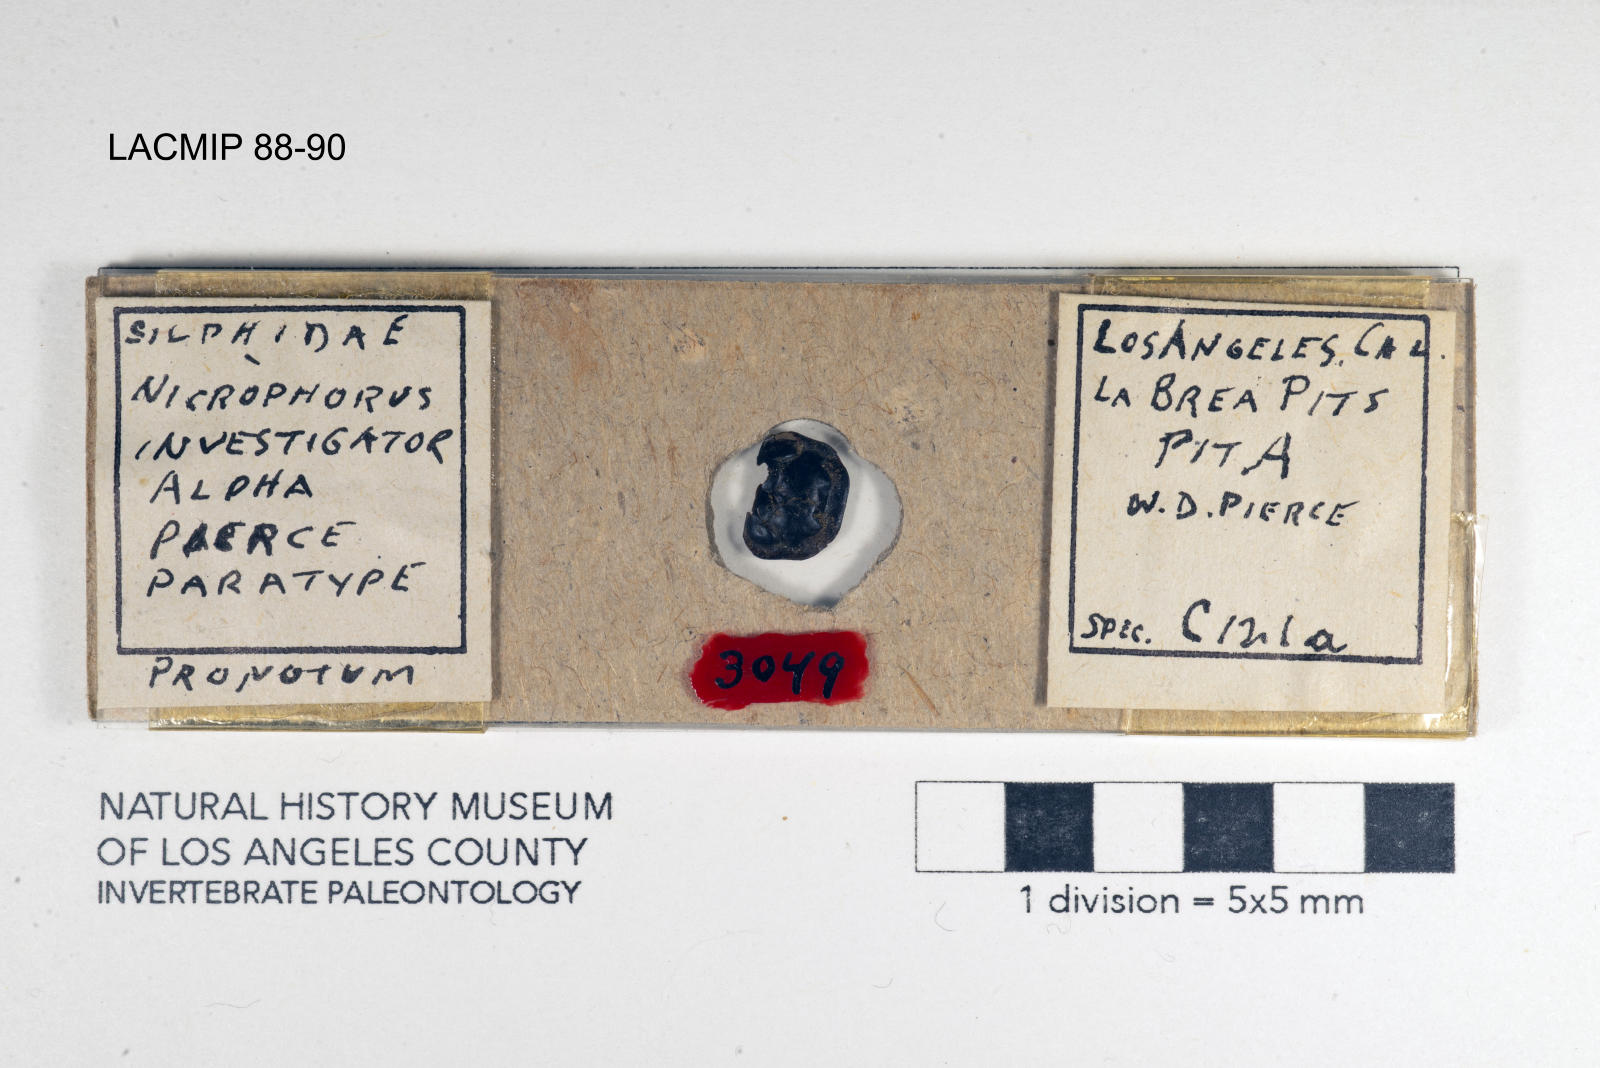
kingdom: Animalia
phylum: Arthropoda
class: Insecta
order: Coleoptera
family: Staphylinidae
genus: Nicrophorus
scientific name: Nicrophorus nigrita
